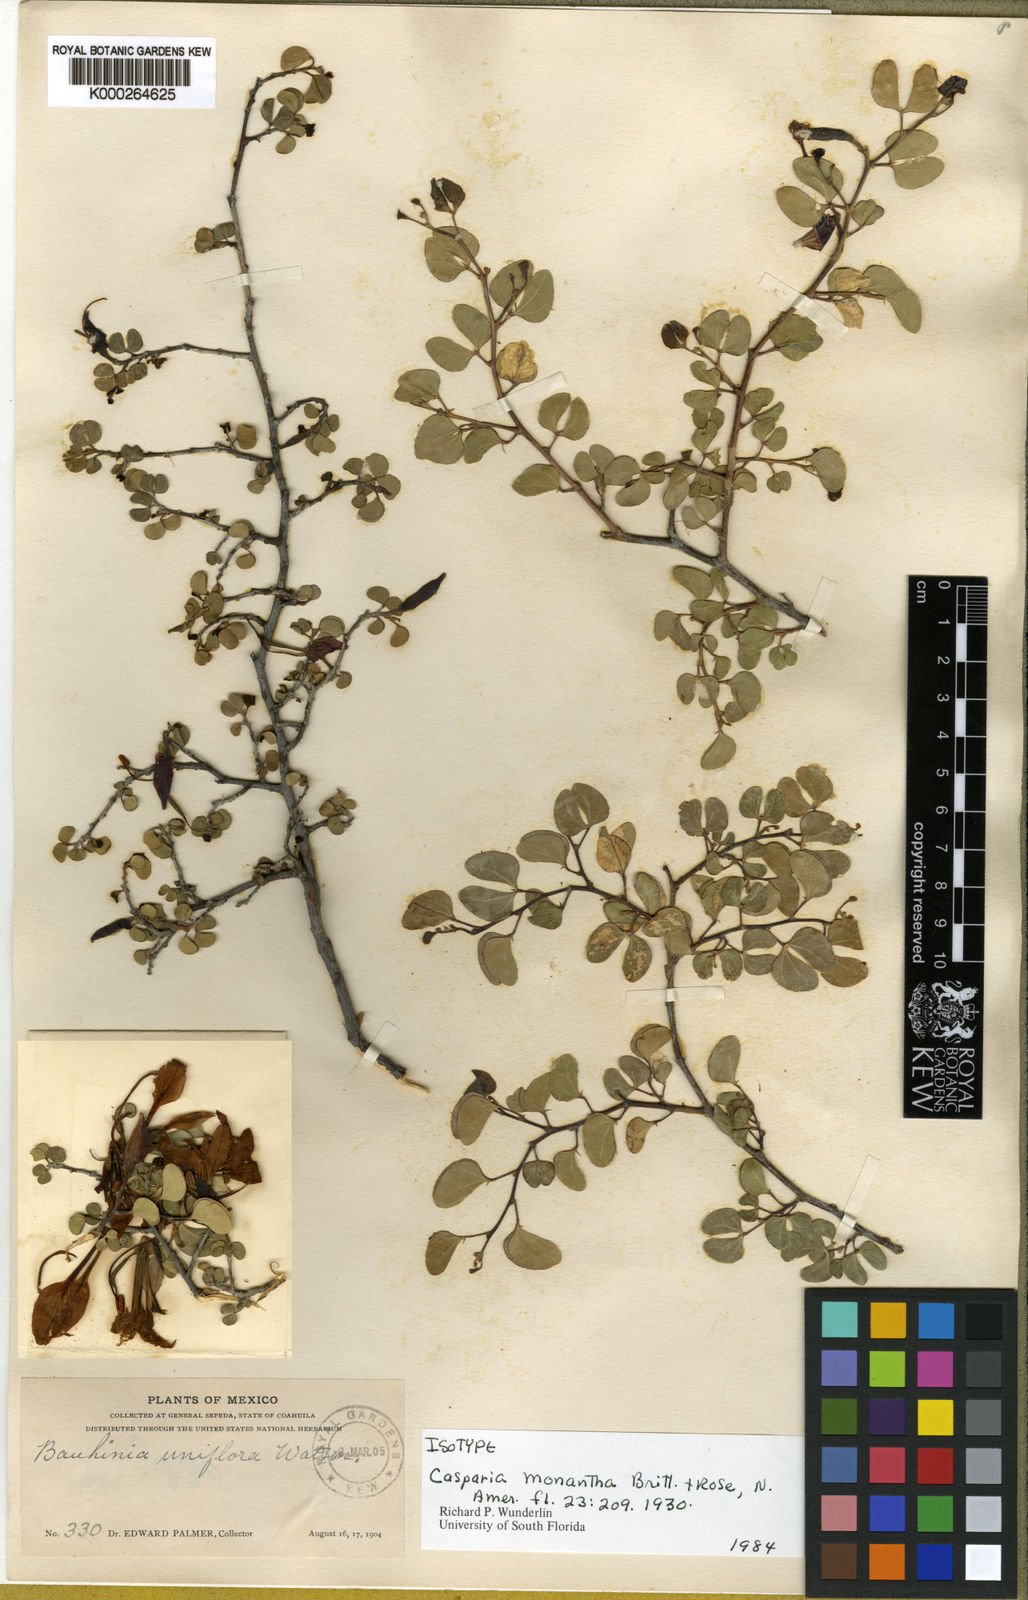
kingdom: Plantae
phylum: Tracheophyta
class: Magnoliopsida
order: Fabales
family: Fabaceae
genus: Bauhinia
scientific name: Bauhinia ramosissima
